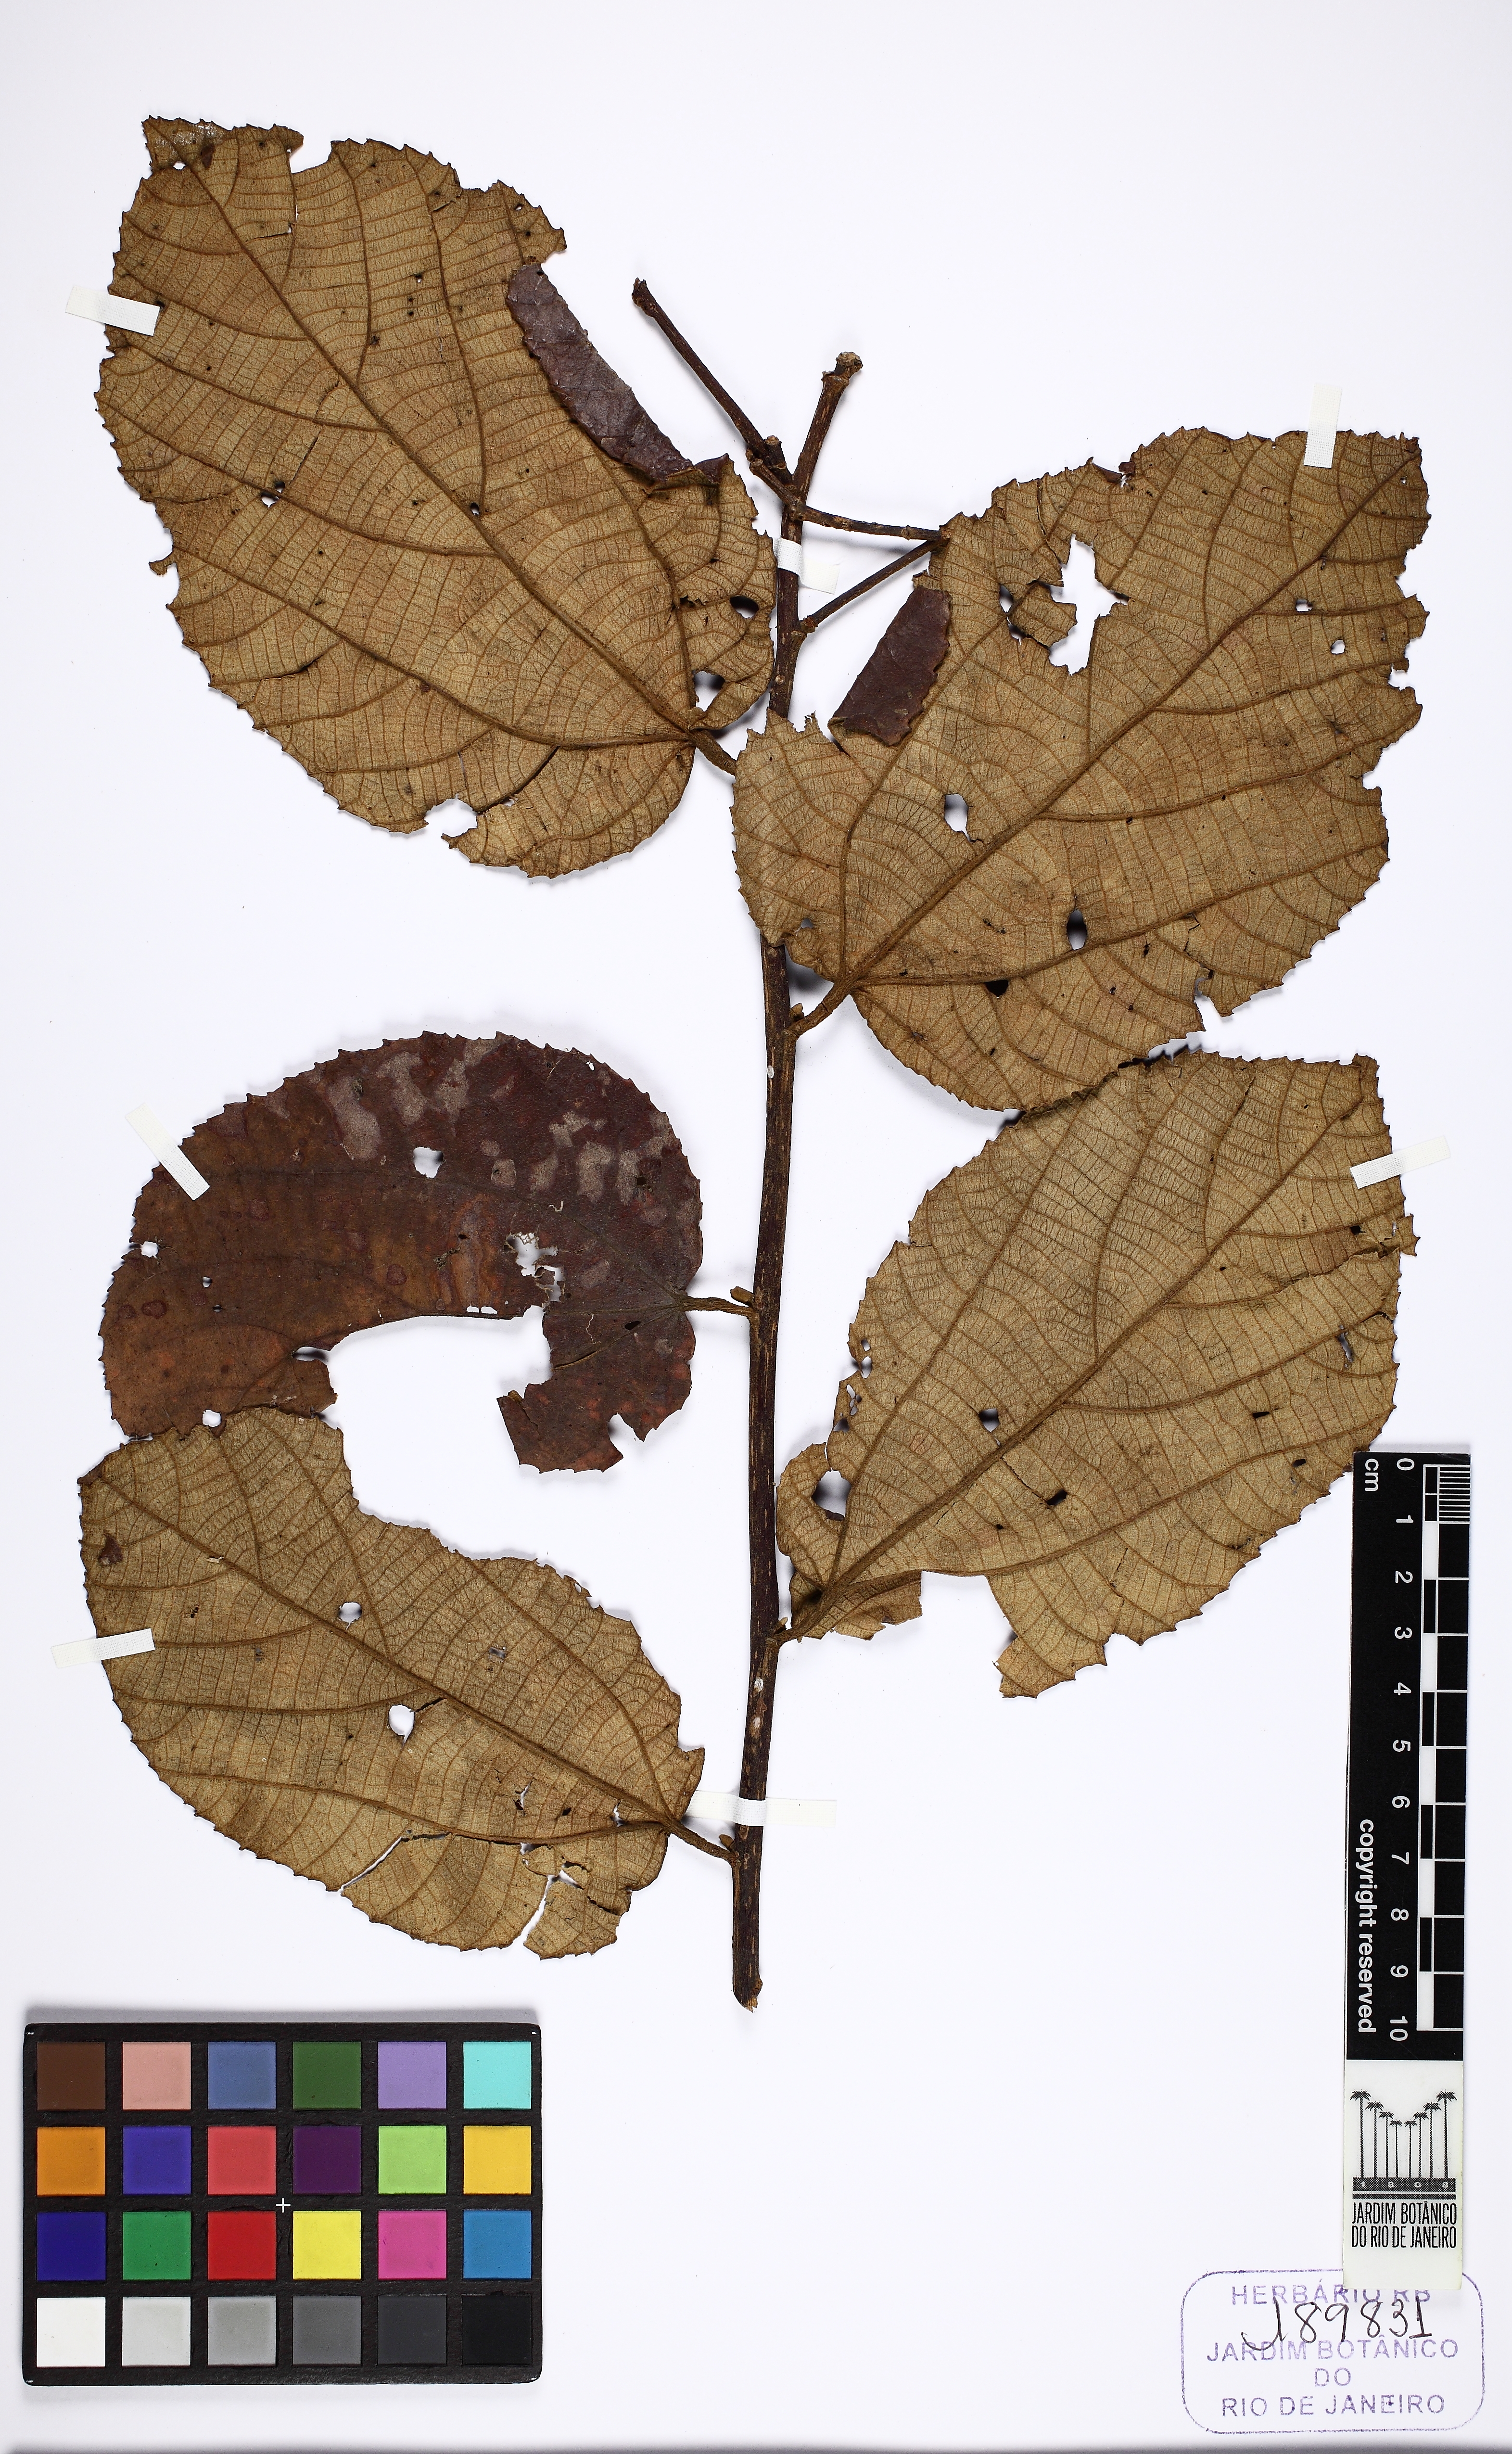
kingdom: Plantae
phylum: Tracheophyta
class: Magnoliopsida
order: Malvales
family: Malvaceae
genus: Luehea
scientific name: Luehea speciosa
